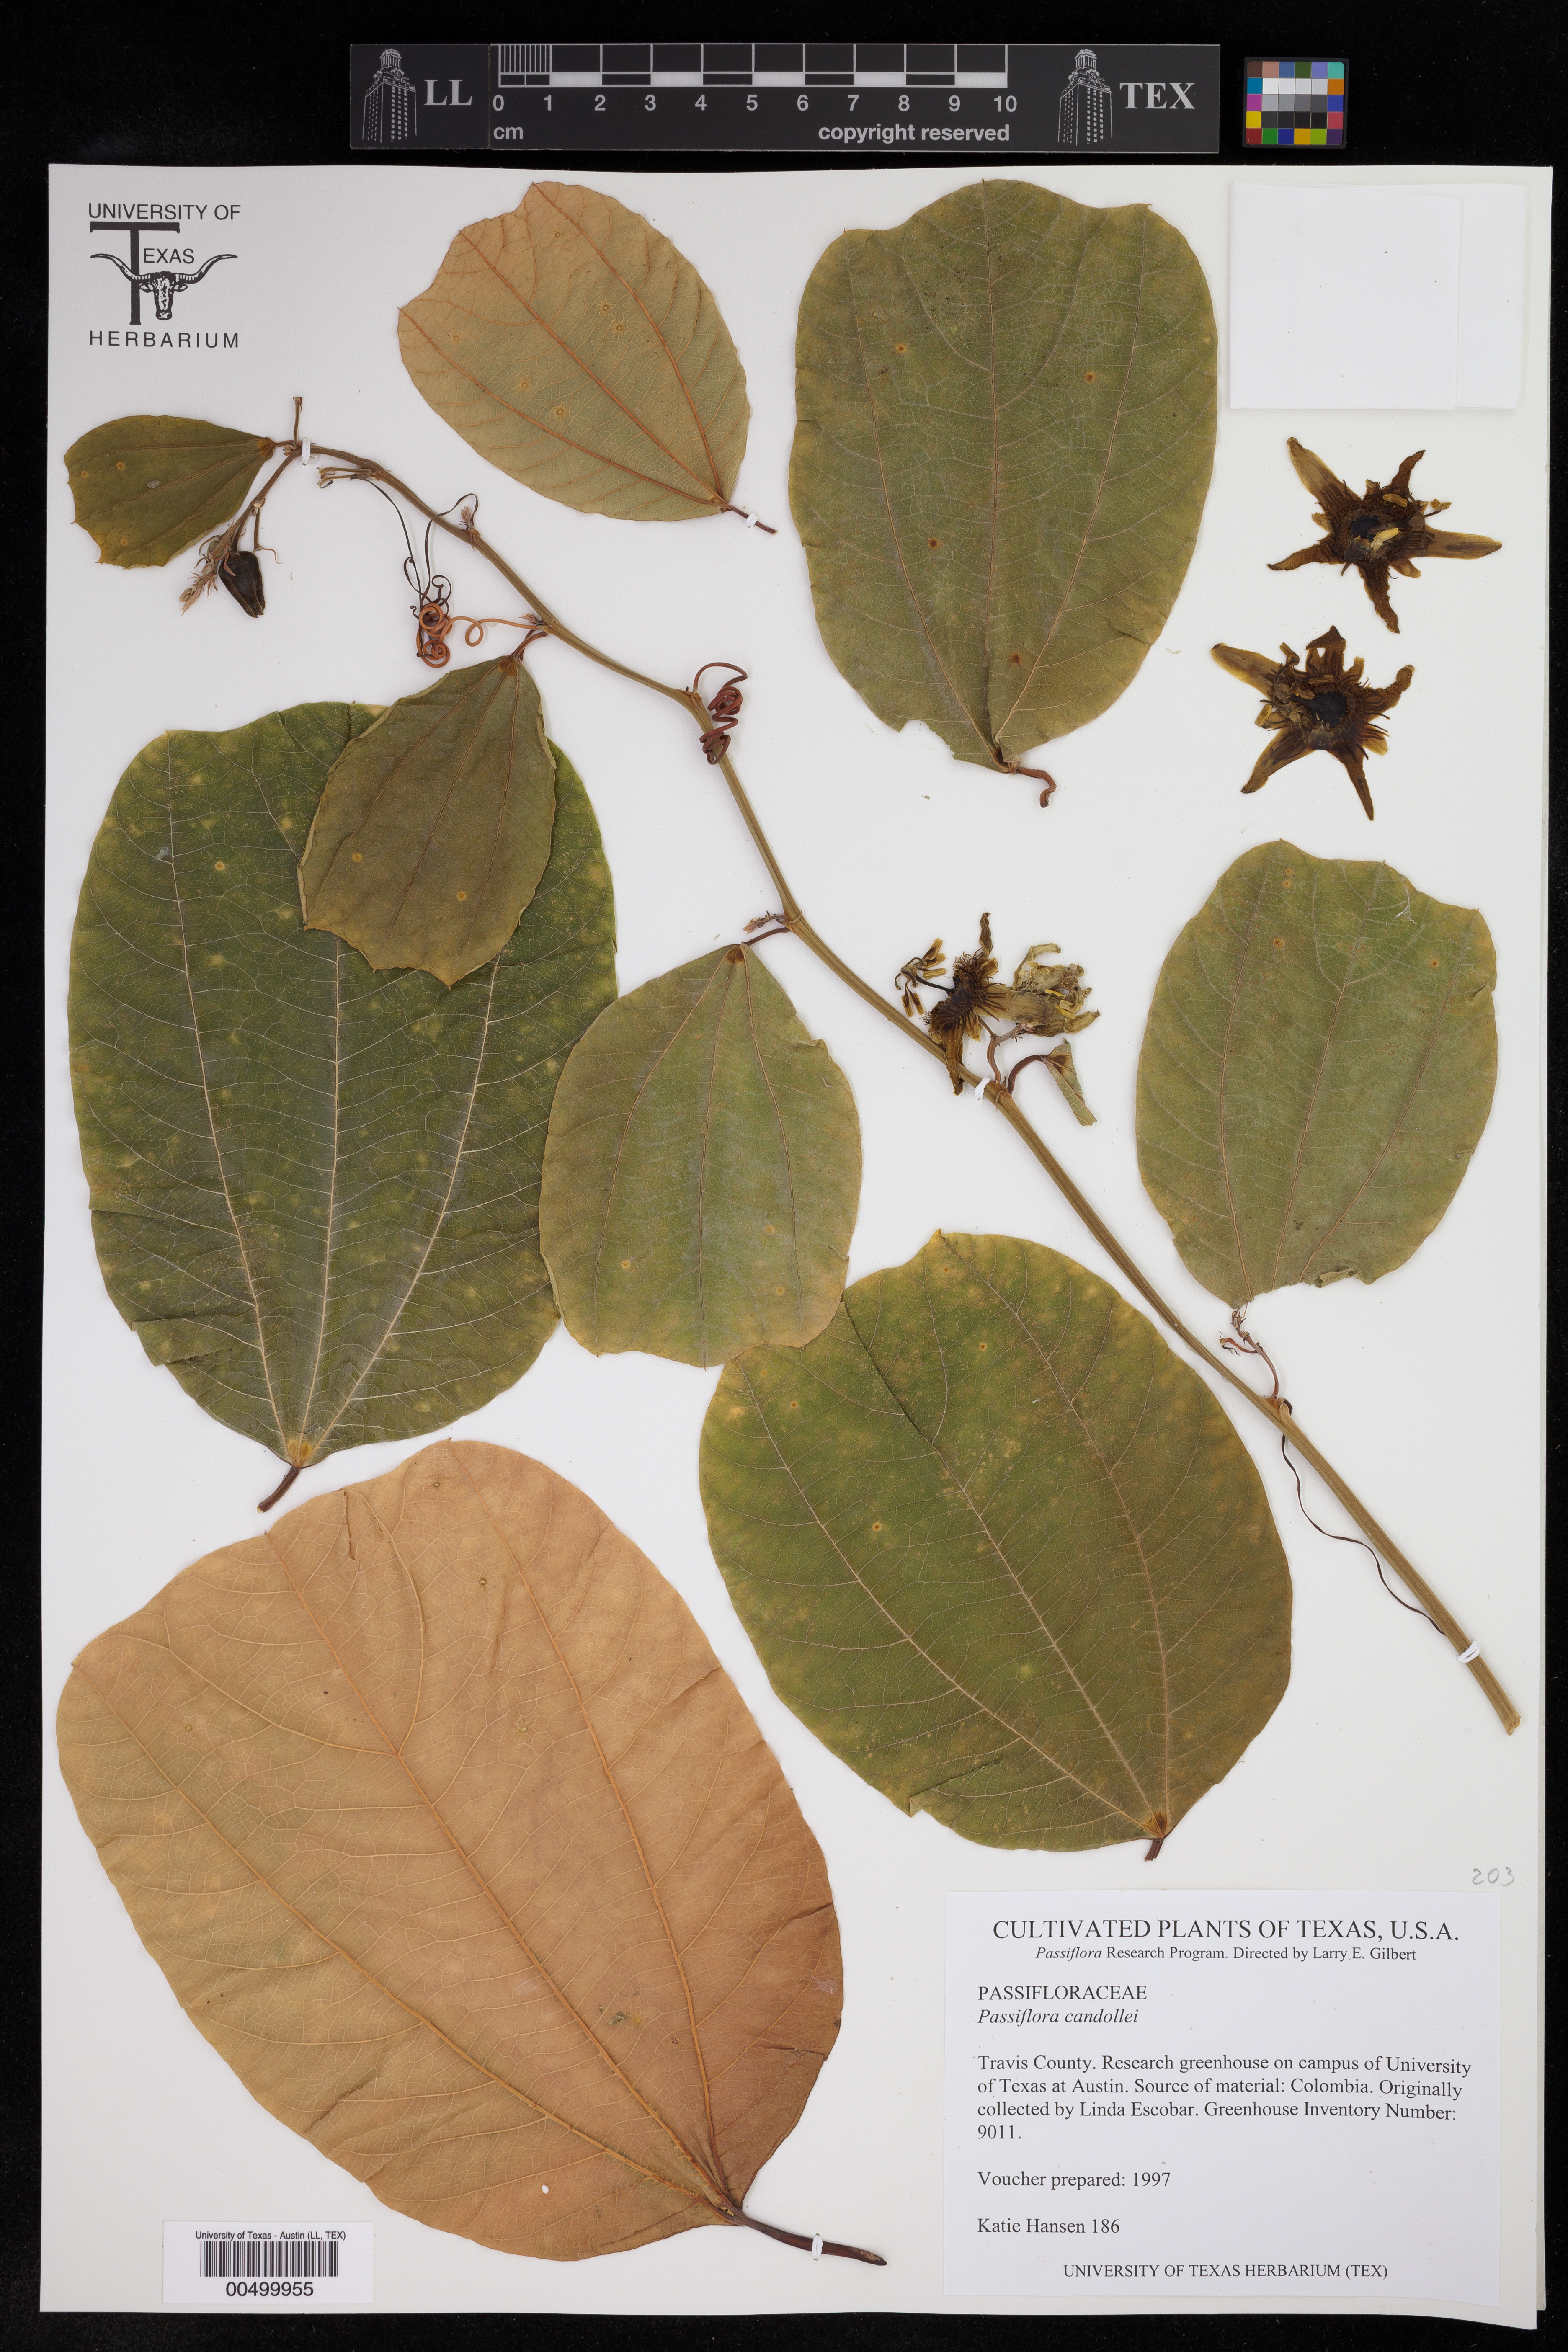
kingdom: Plantae
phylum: Tracheophyta
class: Magnoliopsida
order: Malpighiales
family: Passifloraceae
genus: Passiflora
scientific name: Passiflora candollei
